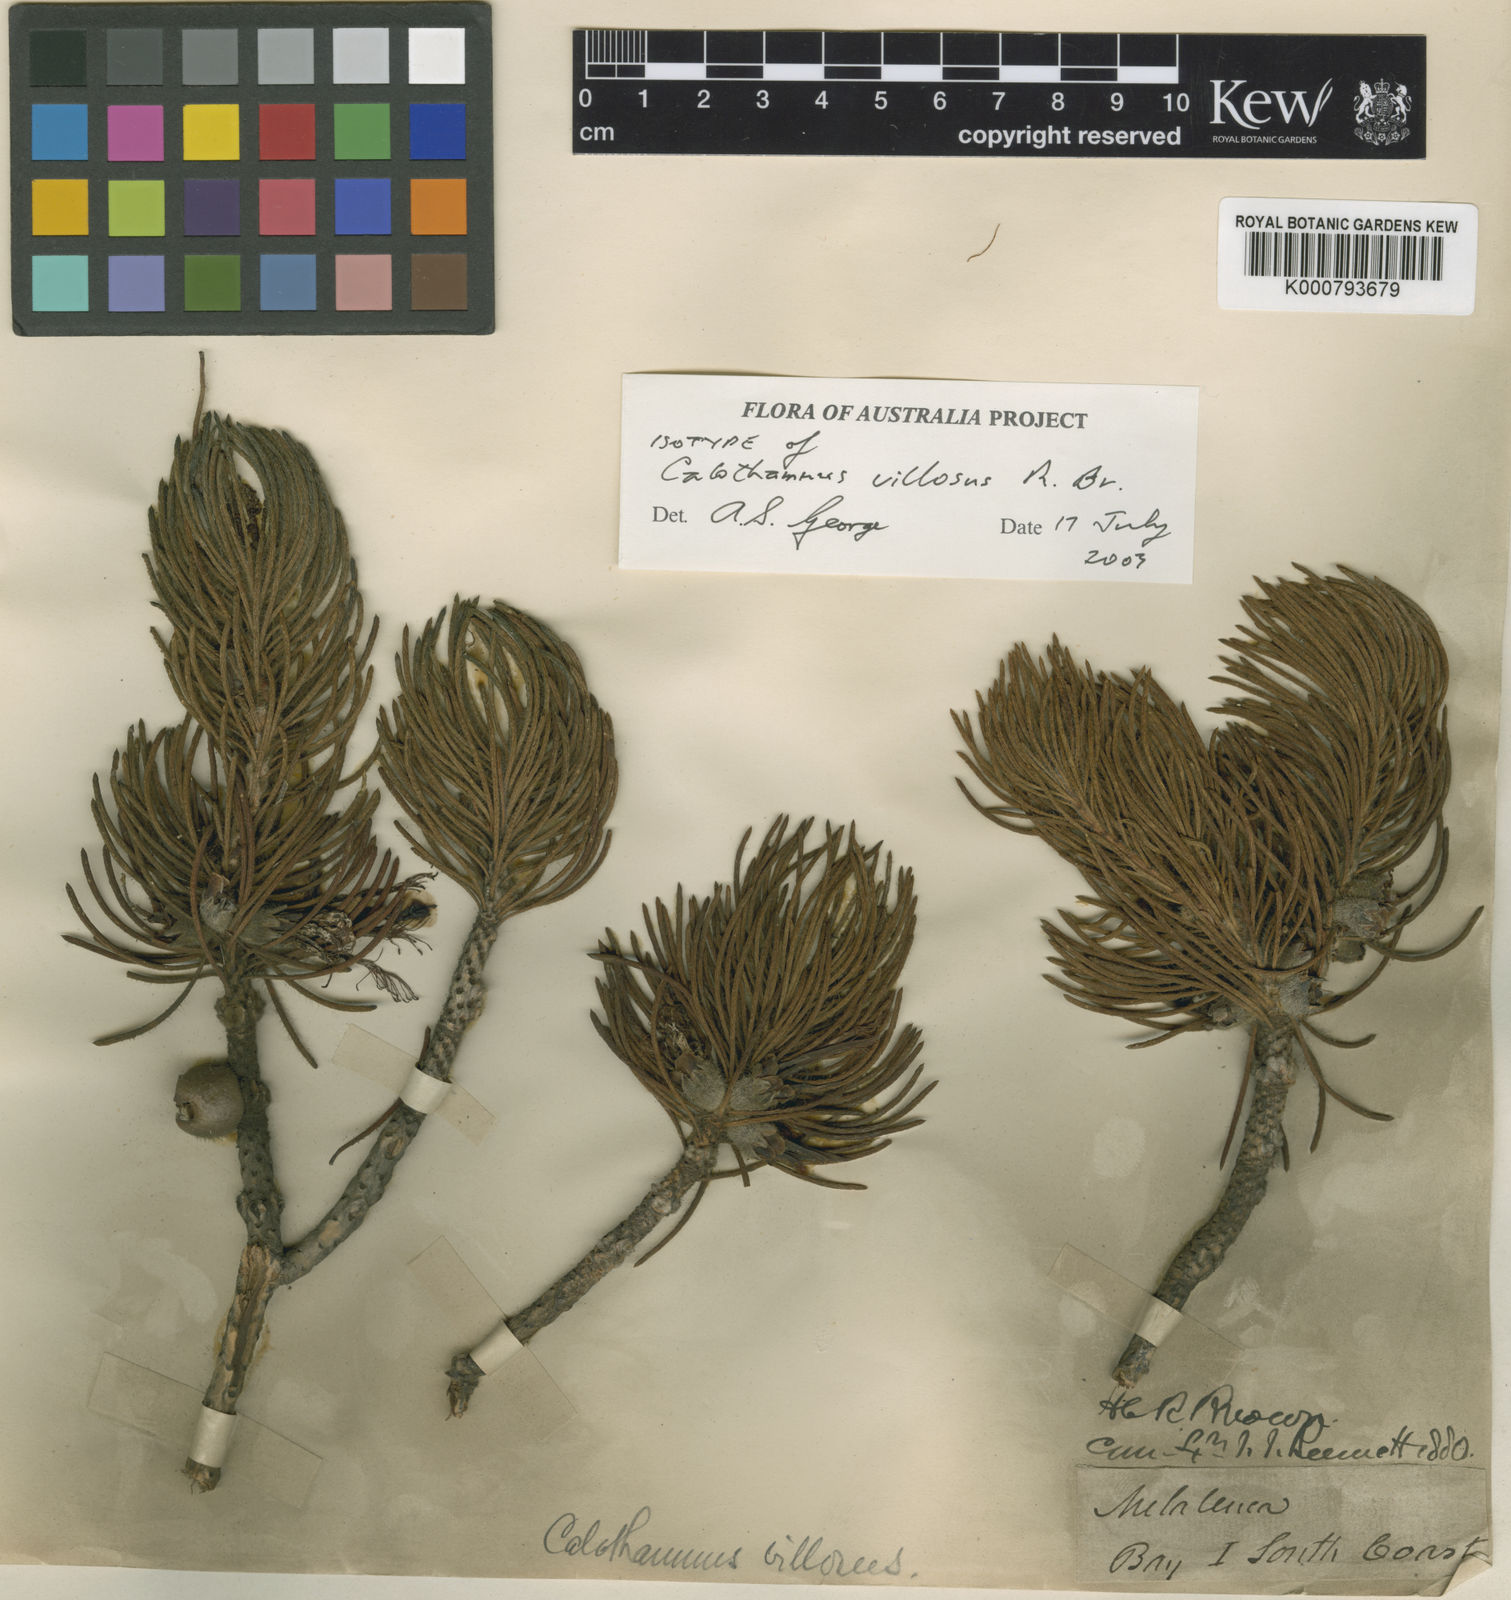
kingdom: Plantae
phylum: Tracheophyta
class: Magnoliopsida
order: Myrtales
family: Myrtaceae
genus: Melaleuca
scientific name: Melaleuca
